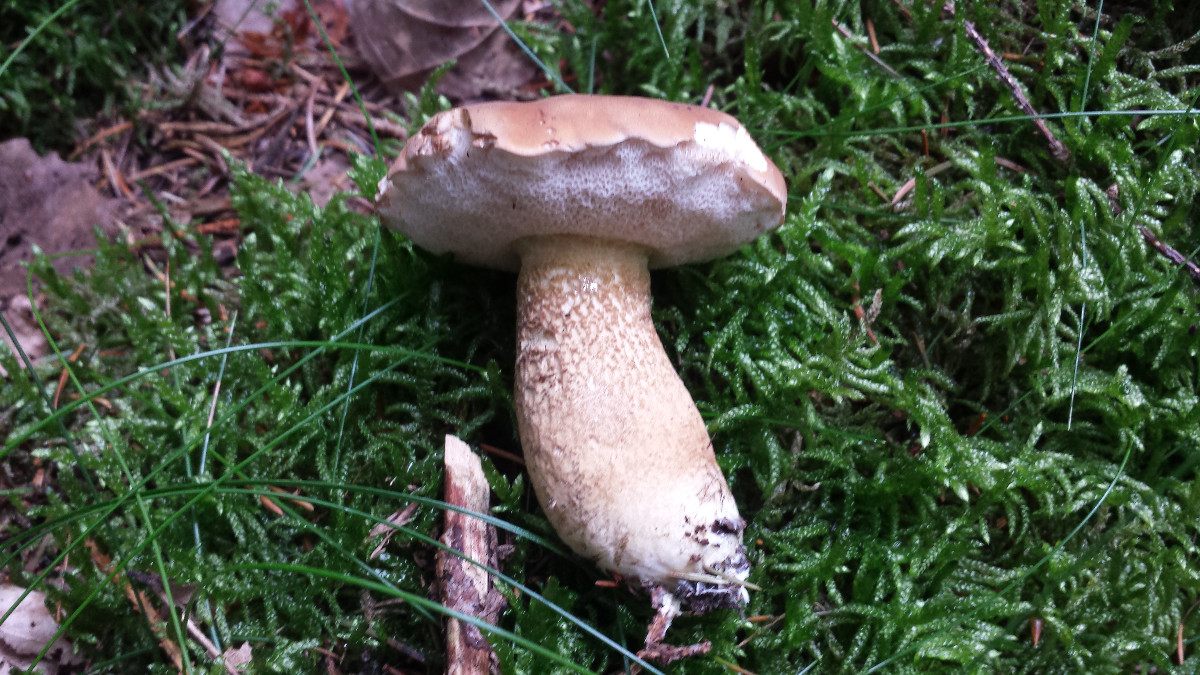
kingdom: Fungi
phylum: Basidiomycota
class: Agaricomycetes
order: Boletales
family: Boletaceae
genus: Tylopilus
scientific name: Tylopilus felleus
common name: galderørhat
